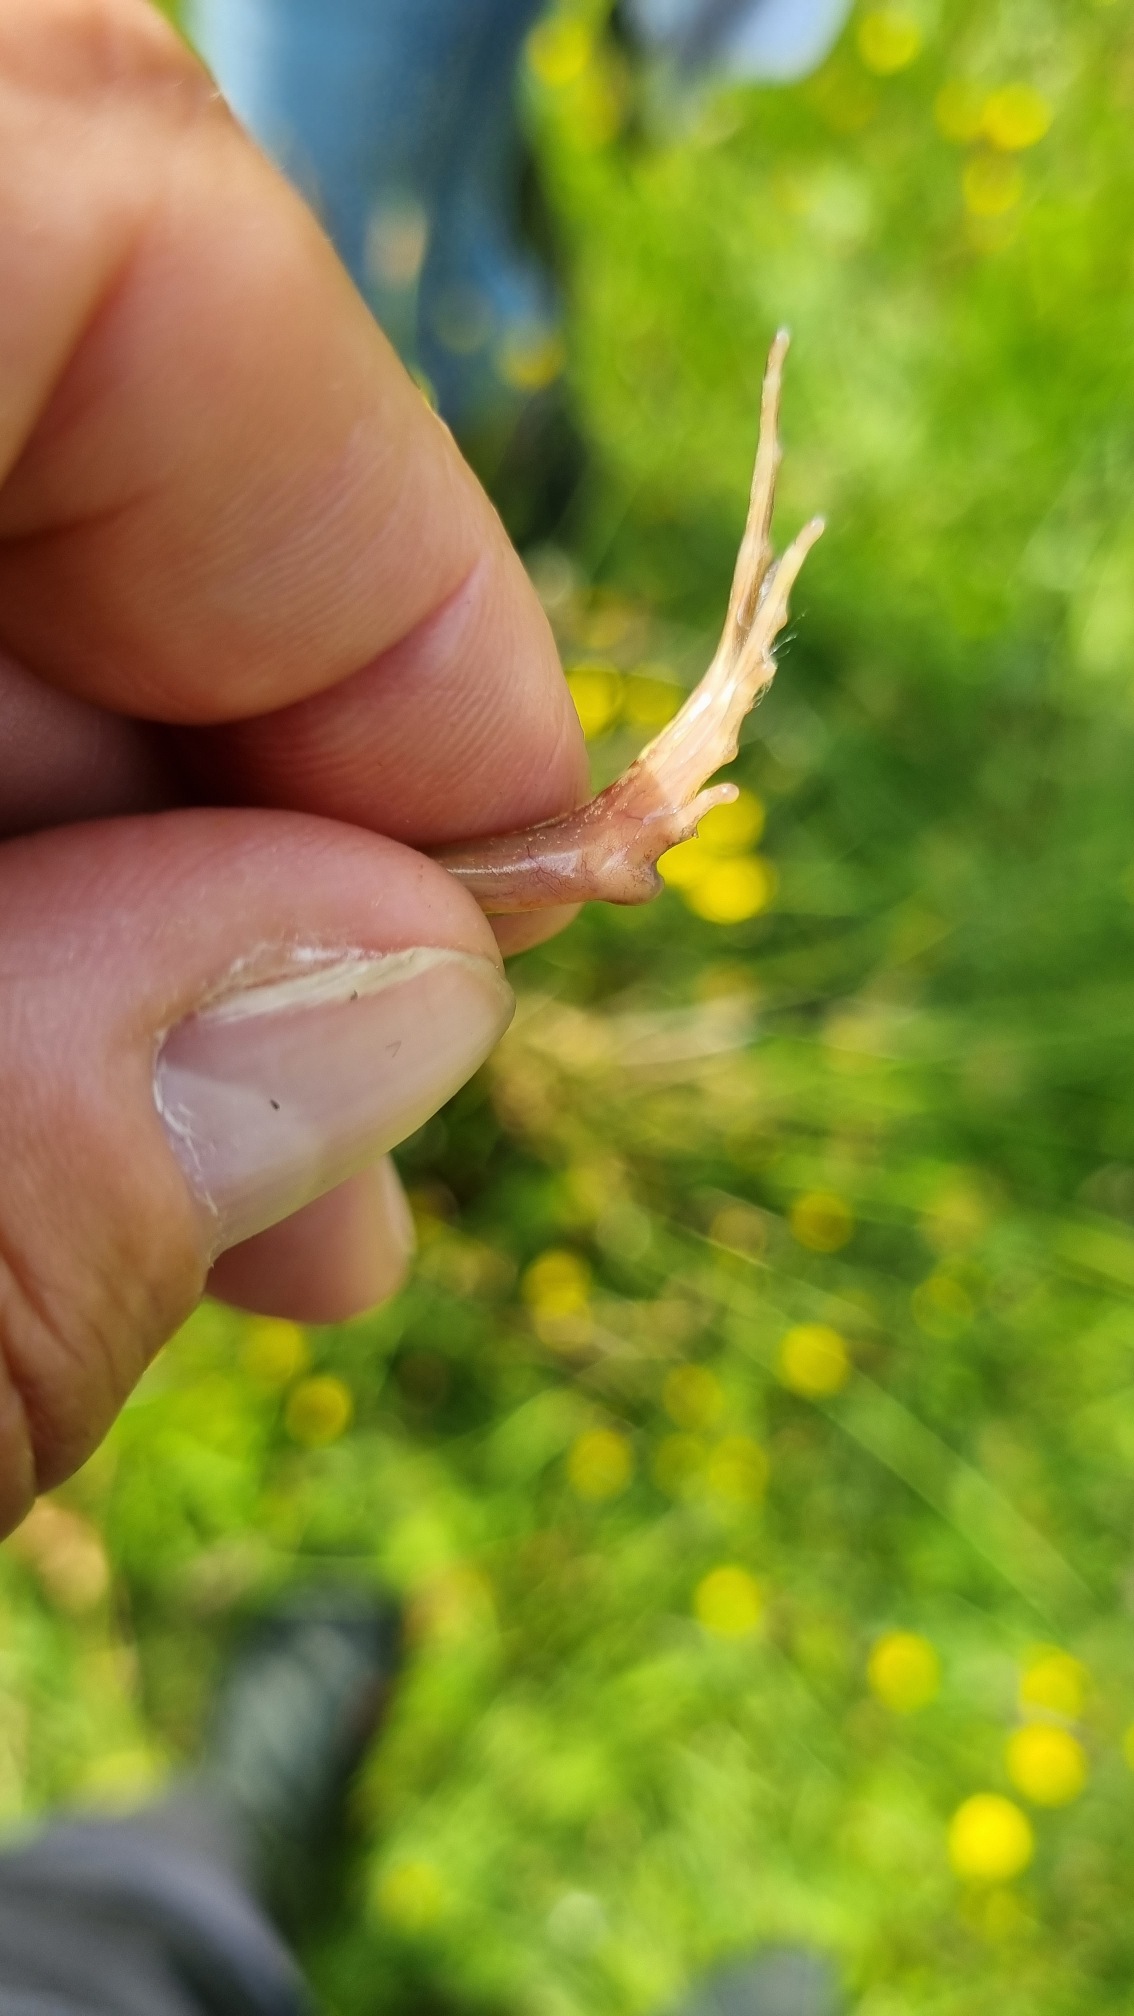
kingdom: Animalia
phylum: Chordata
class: Amphibia
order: Anura
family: Ranidae
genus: Rana
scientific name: Rana arvalis
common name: Spidssnudet frø
